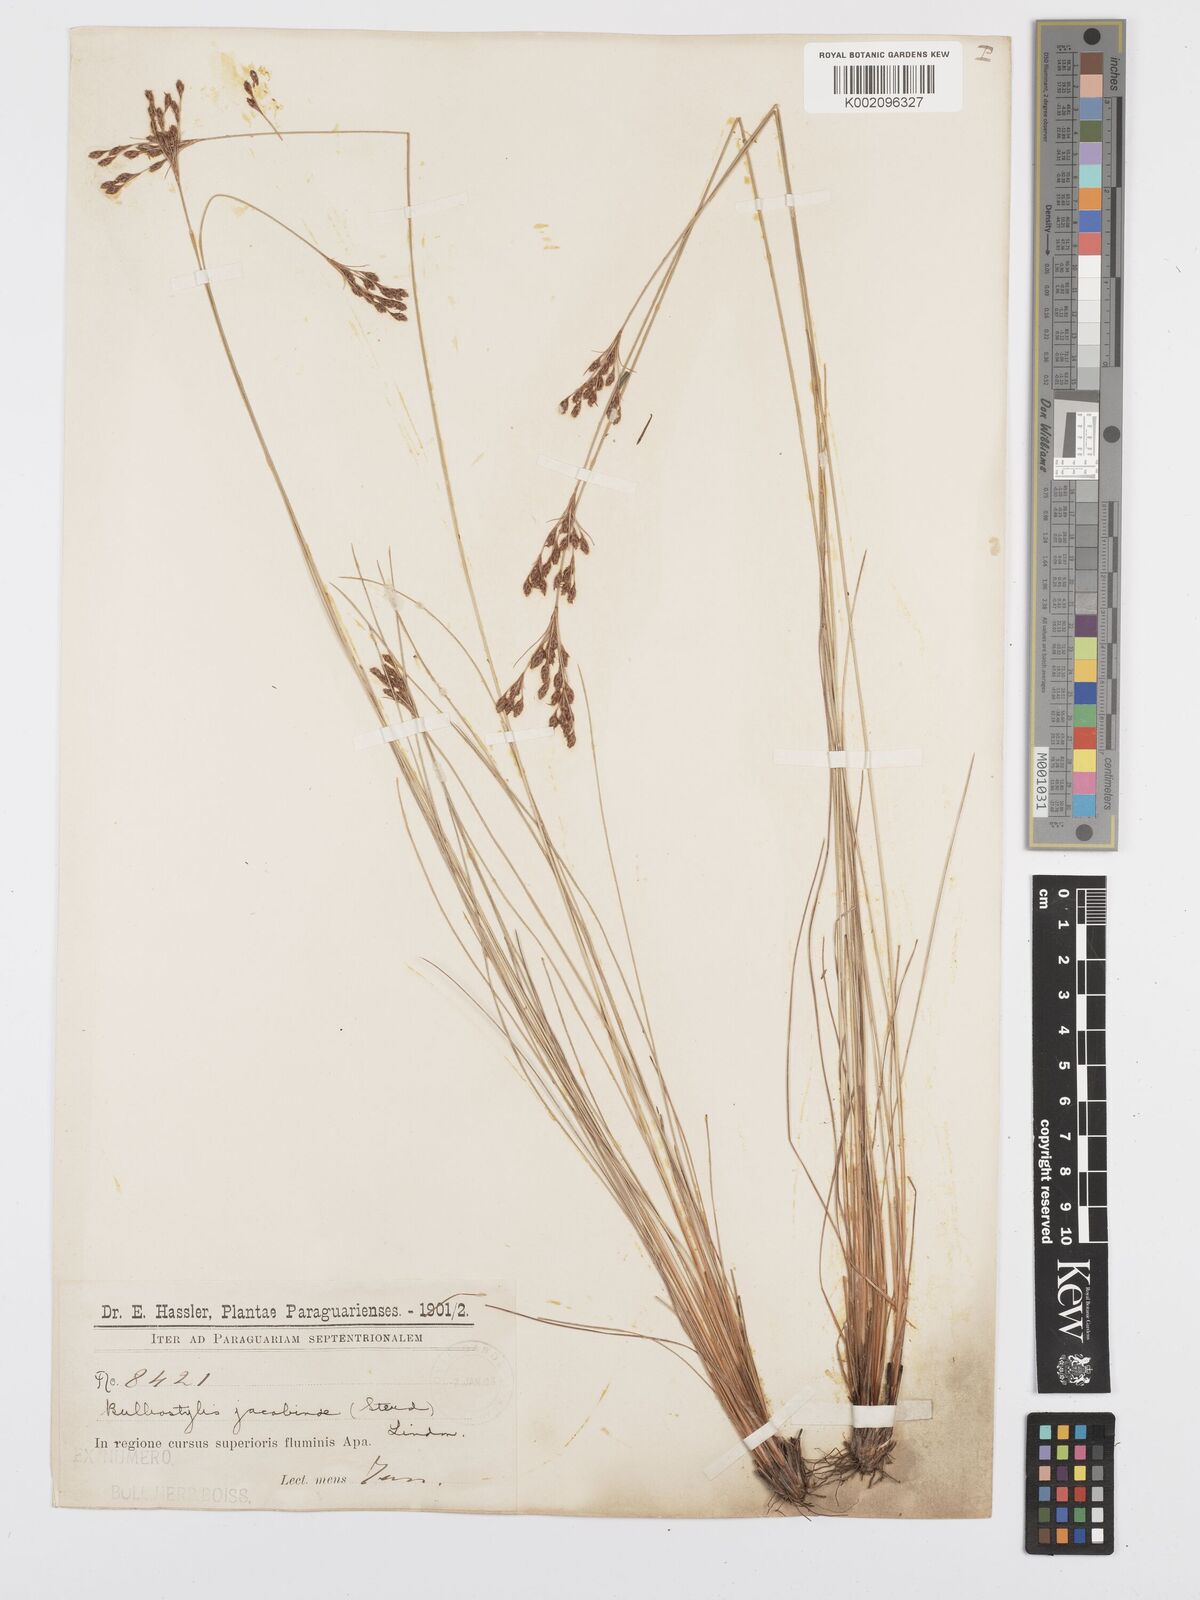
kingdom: Plantae
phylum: Tracheophyta
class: Liliopsida
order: Poales
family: Cyperaceae
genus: Bulbostylis
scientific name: Bulbostylis jacobinae
